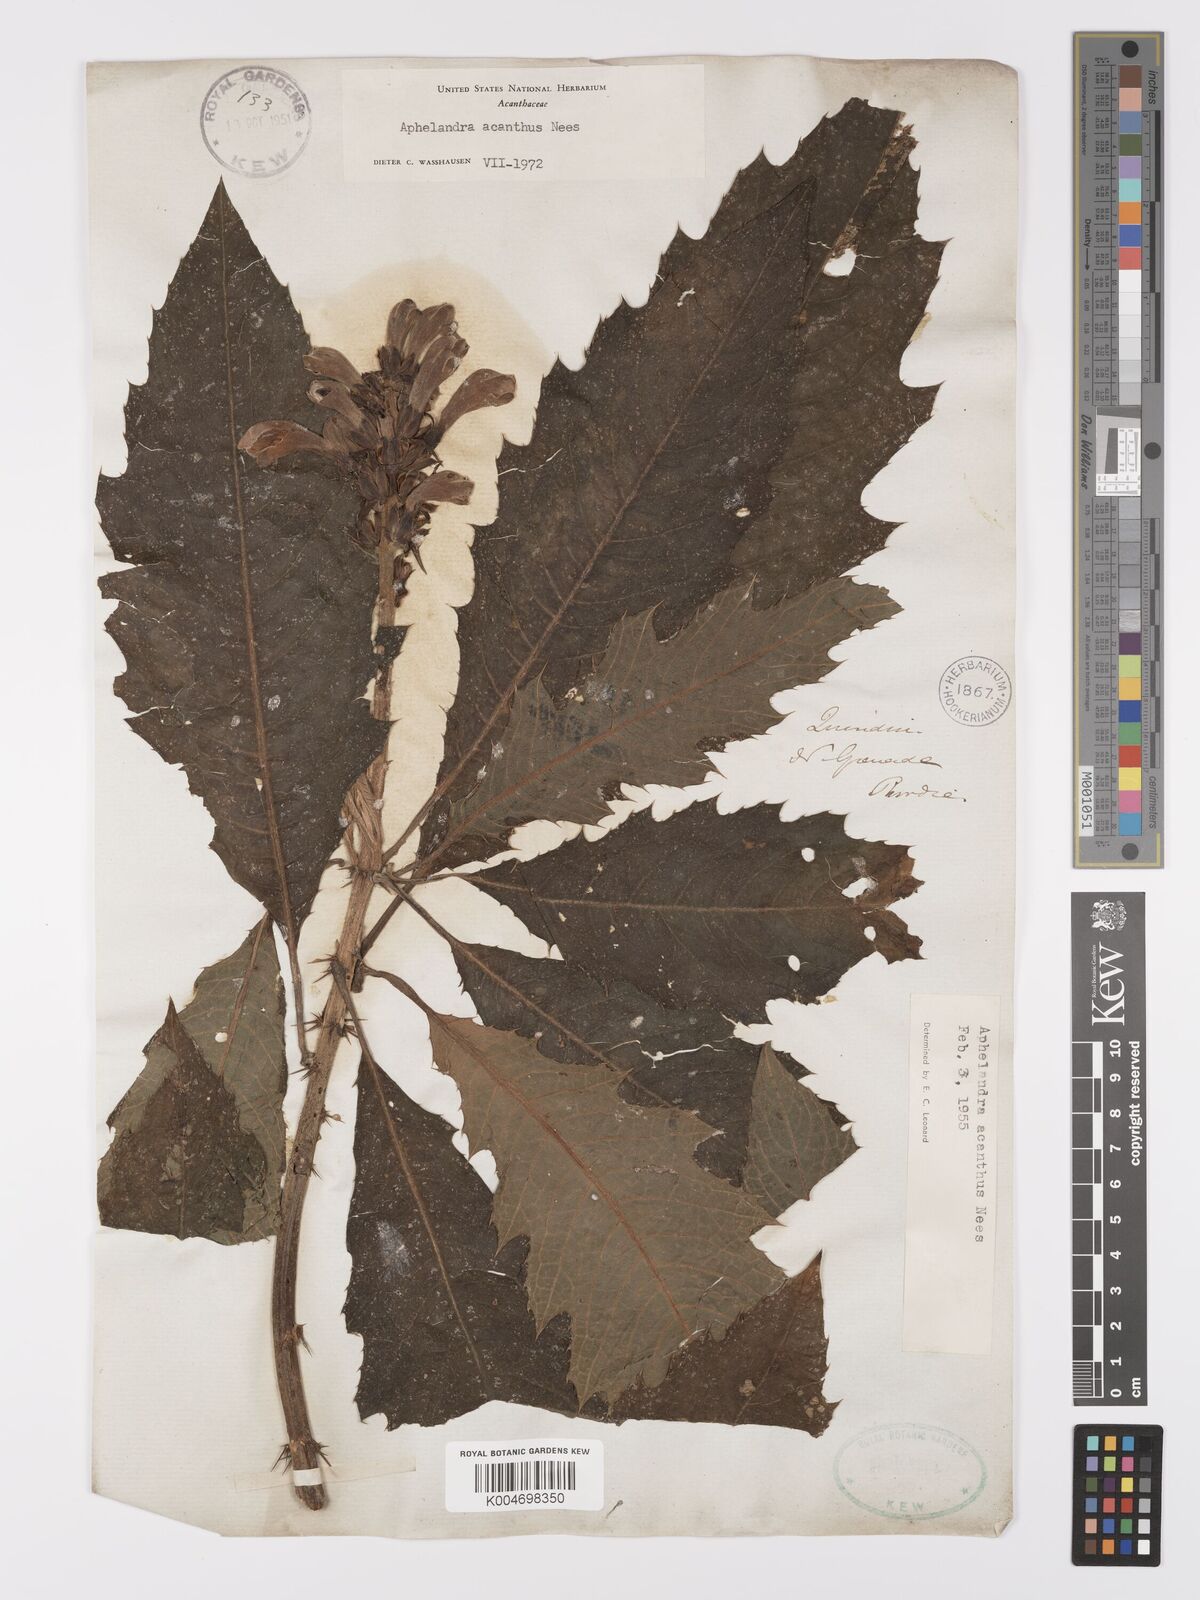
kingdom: Plantae
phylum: Tracheophyta
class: Magnoliopsida
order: Lamiales
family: Acanthaceae
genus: Aphelandra
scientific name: Aphelandra acanthus
